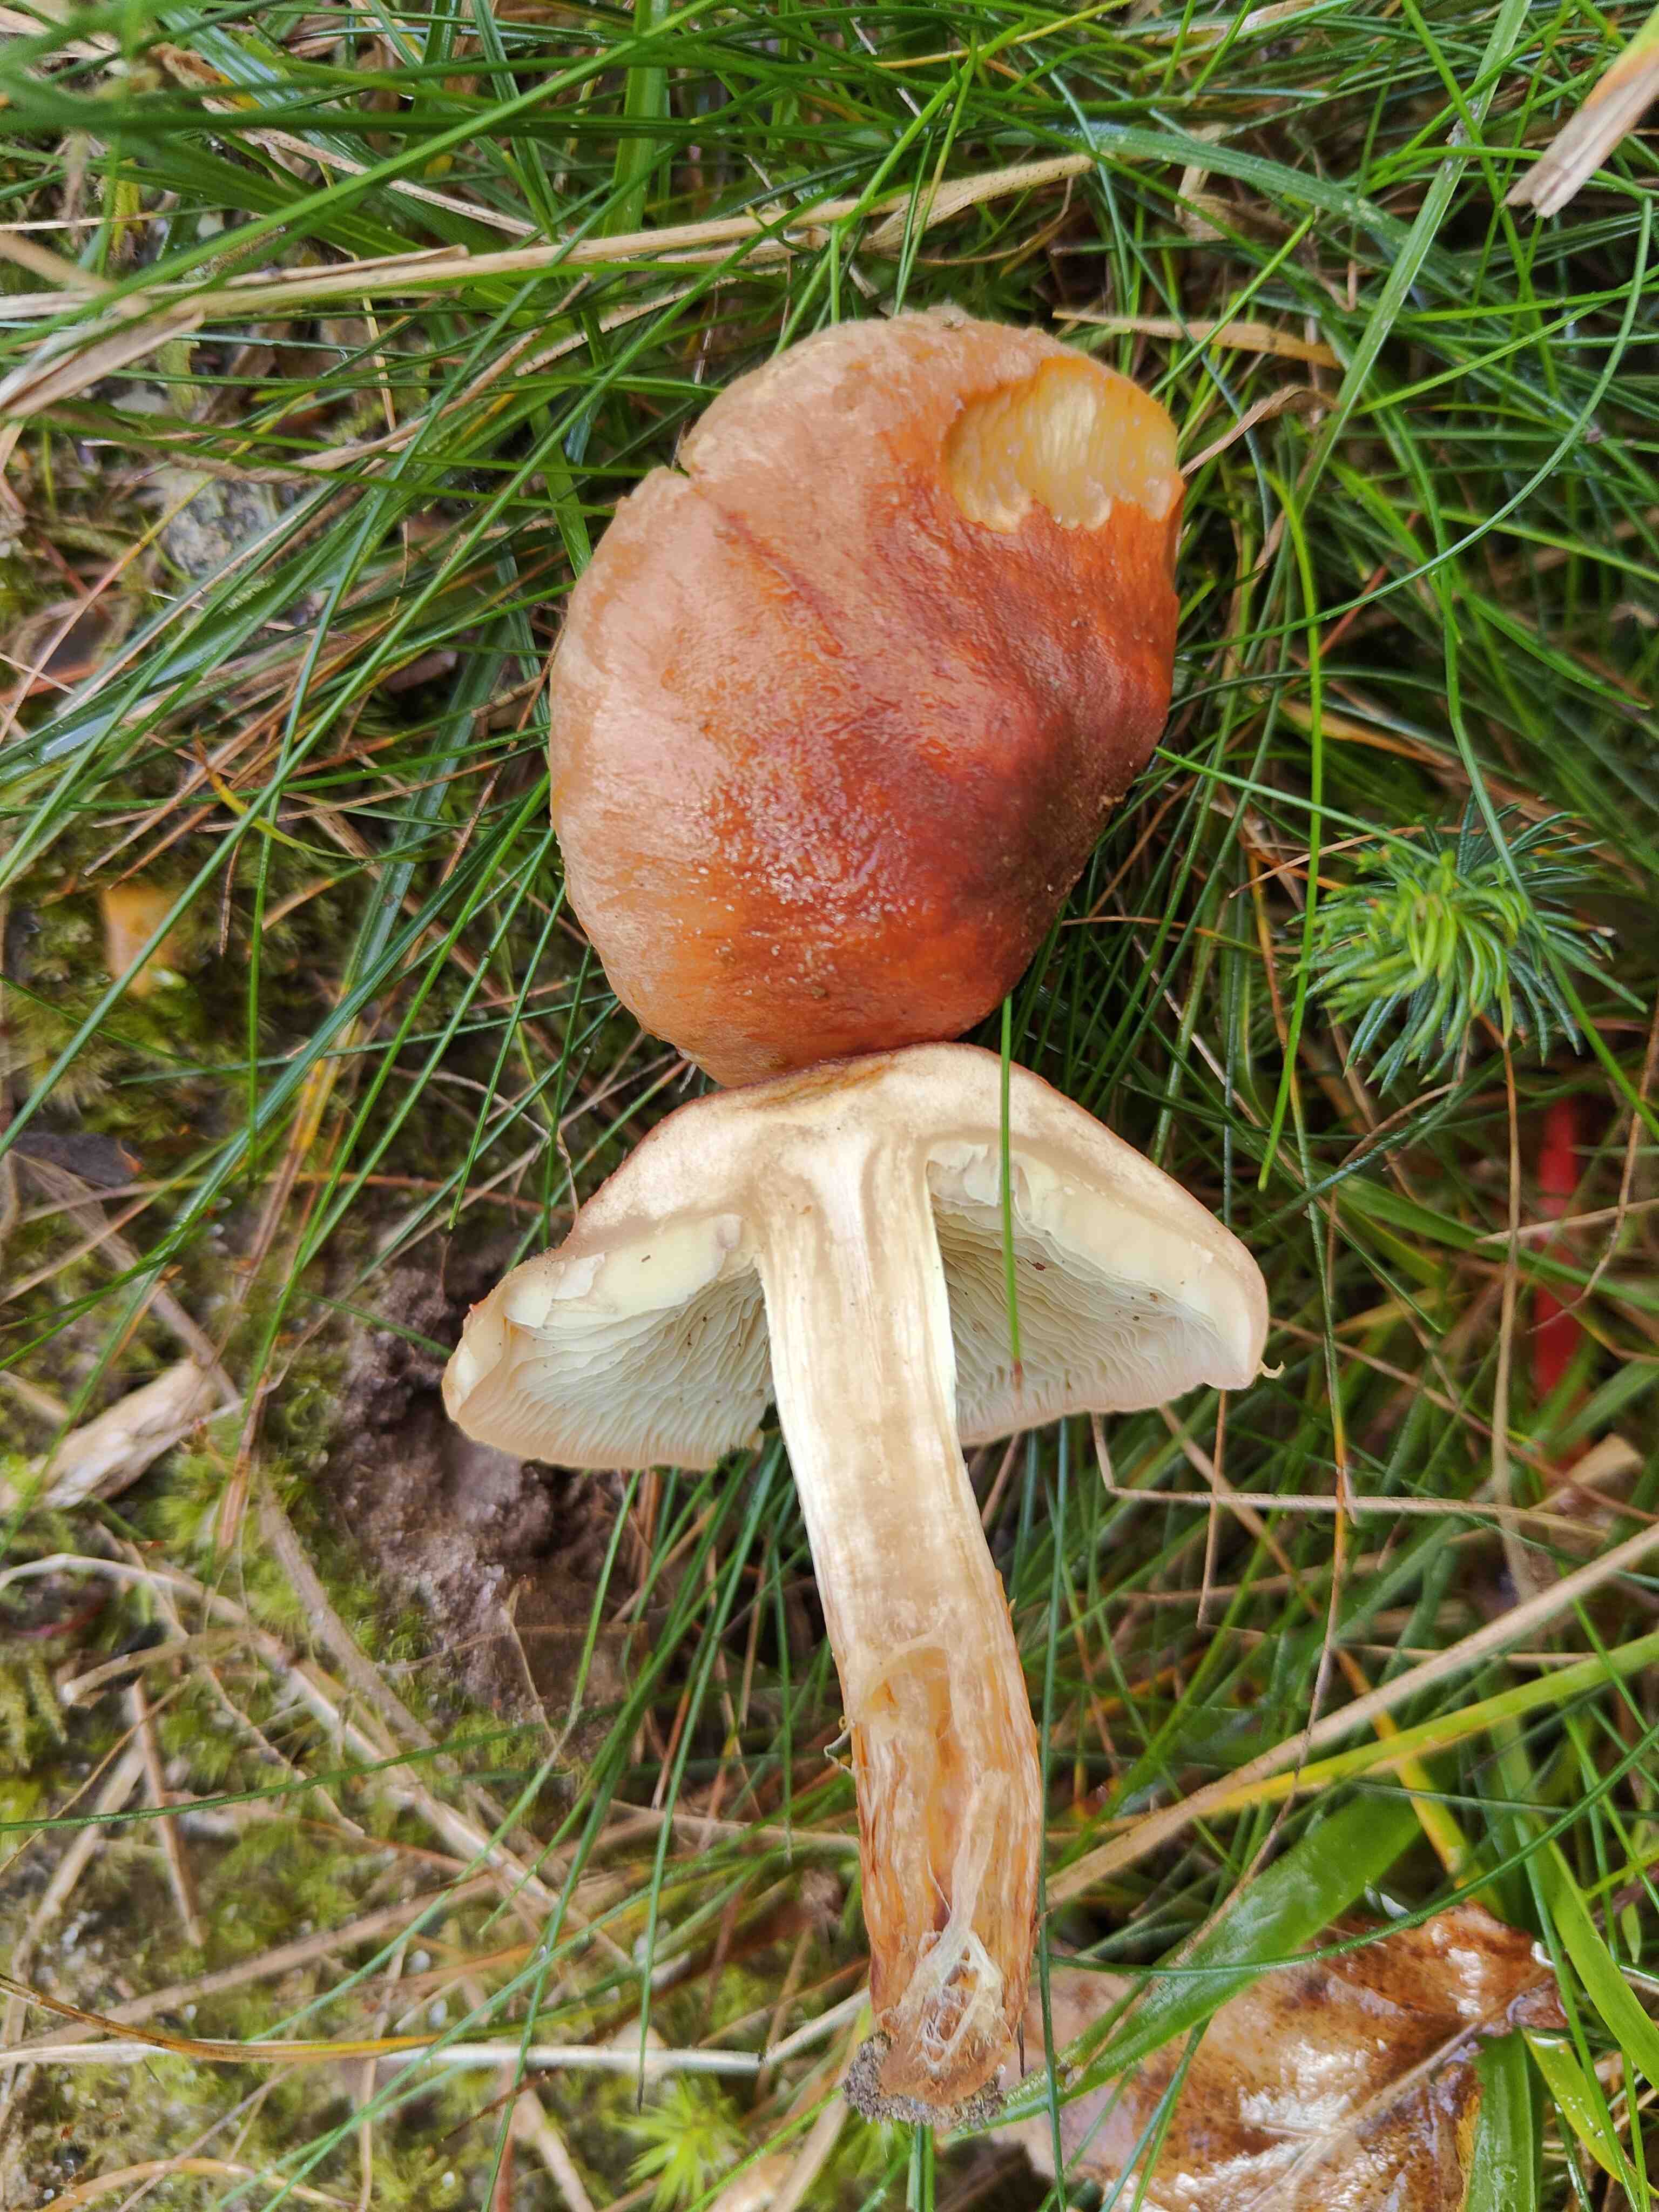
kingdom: Fungi
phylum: Basidiomycota
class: Agaricomycetes
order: Agaricales
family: Strophariaceae
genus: Hypholoma
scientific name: Hypholoma lateritium
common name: teglrød svovlhat
